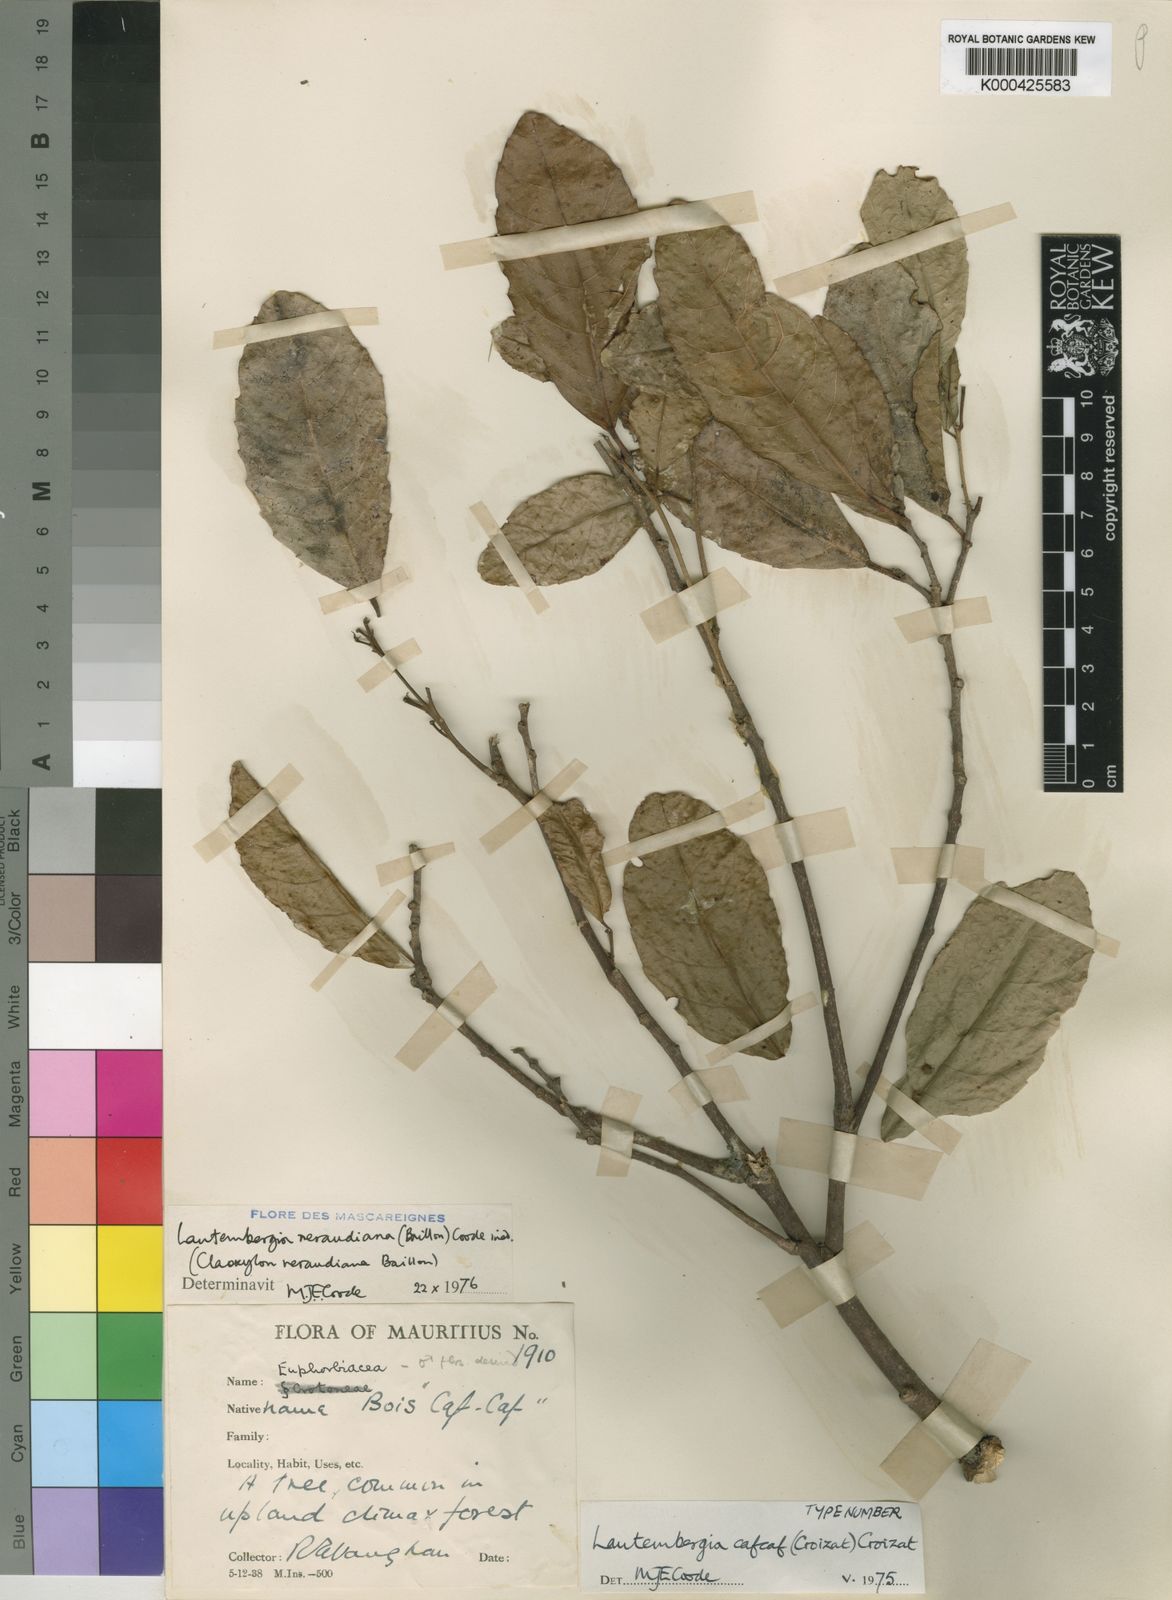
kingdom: Plantae
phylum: Tracheophyta
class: Magnoliopsida
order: Malpighiales
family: Euphorbiaceae
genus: Orfilea
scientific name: Orfilea neraudiana
